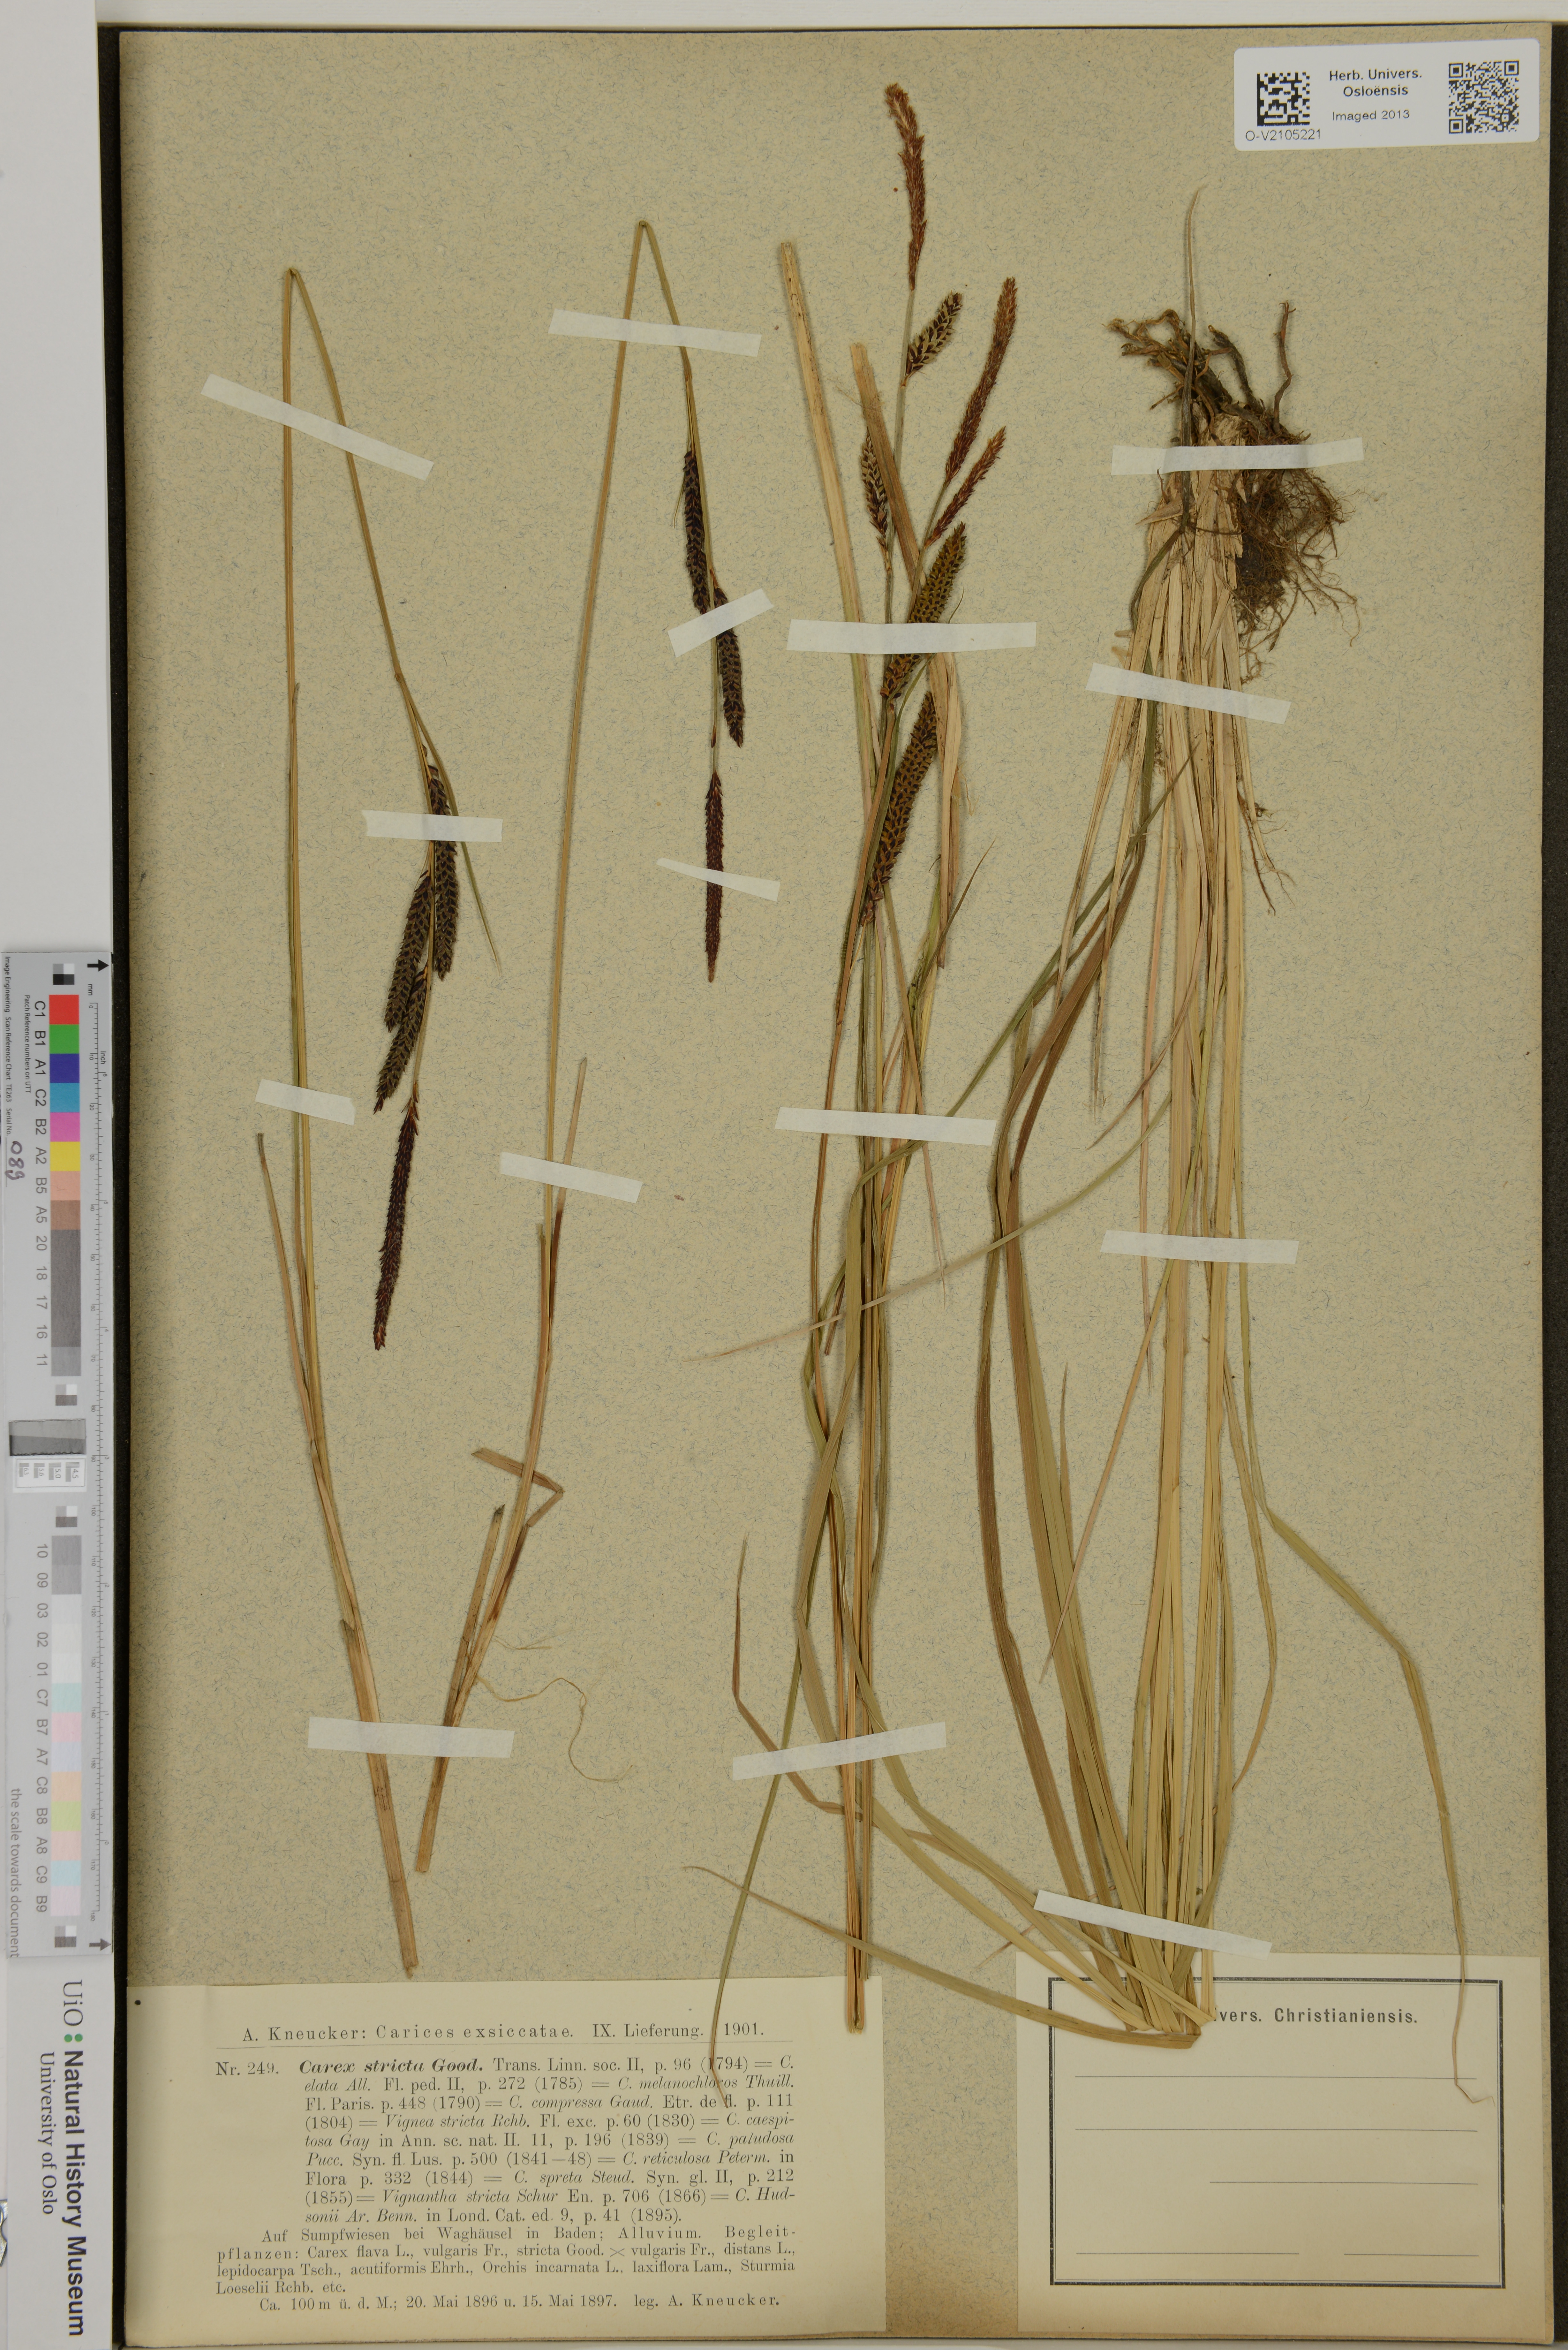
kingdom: Plantae
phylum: Tracheophyta
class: Liliopsida
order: Poales
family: Cyperaceae
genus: Carex
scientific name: Carex elata
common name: Tufted sedge
